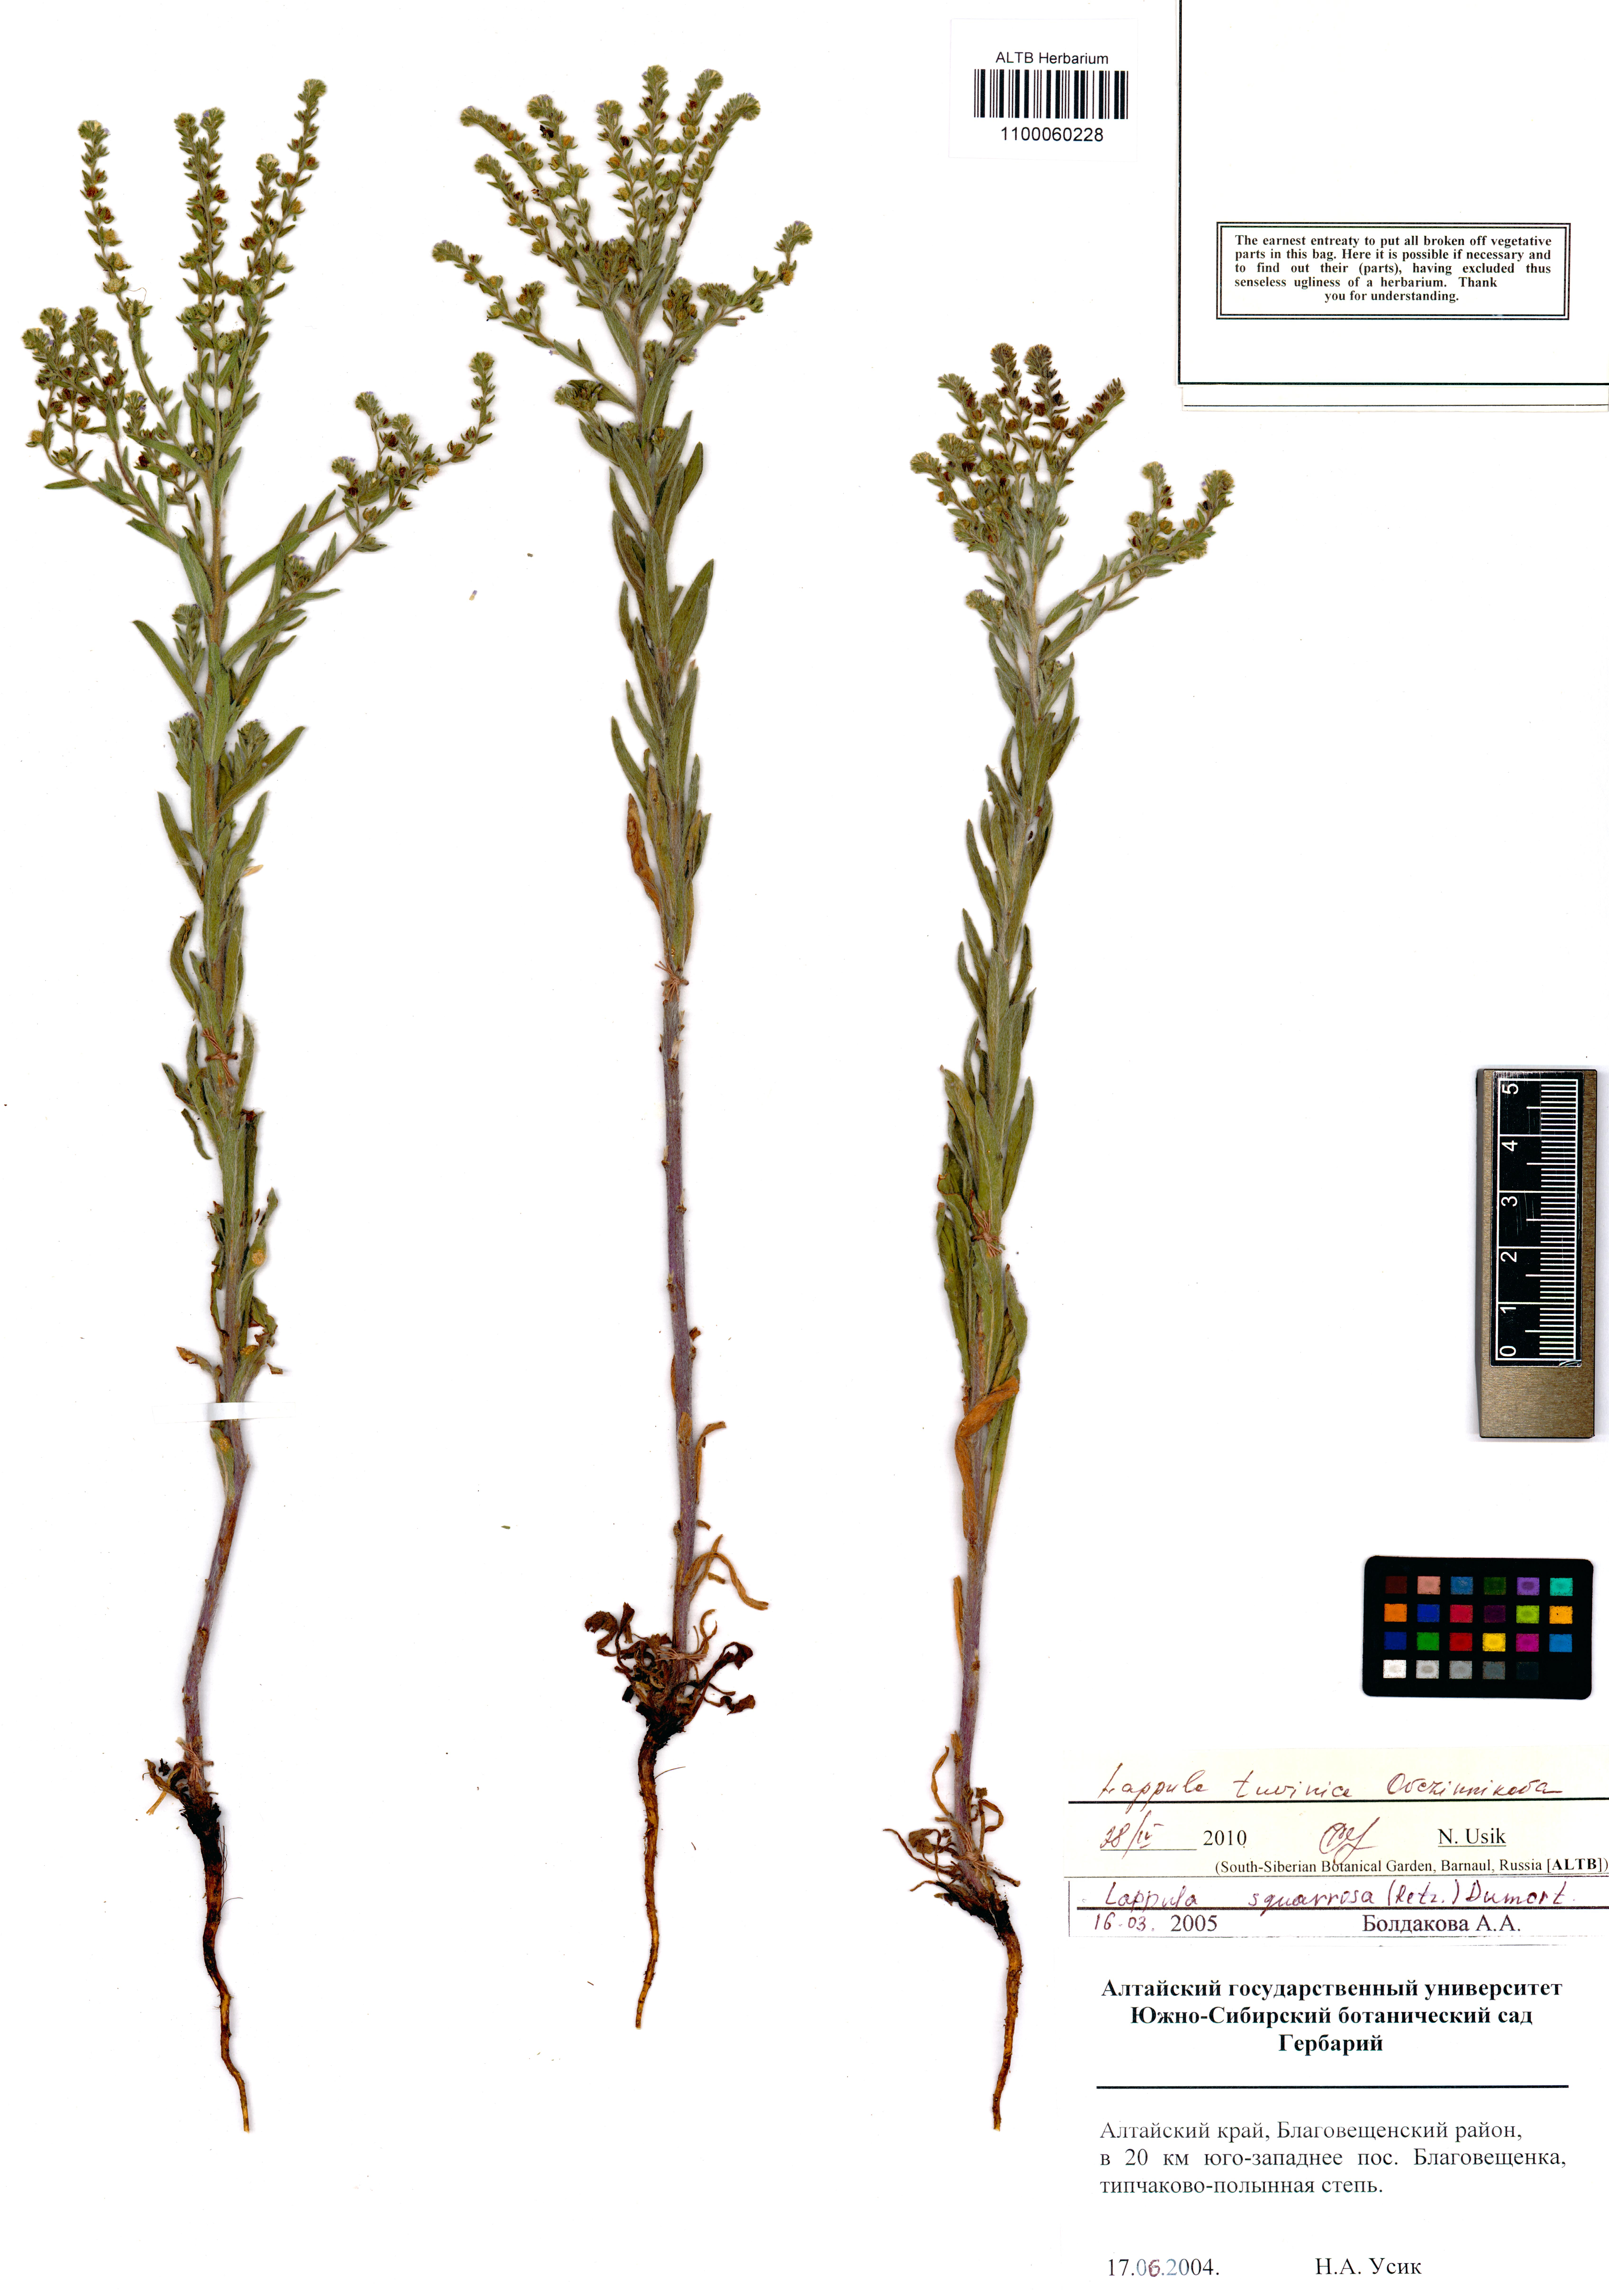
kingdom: Plantae
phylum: Tracheophyta
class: Magnoliopsida
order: Boraginales
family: Boraginaceae
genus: Lappula
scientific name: Lappula tuvinica
